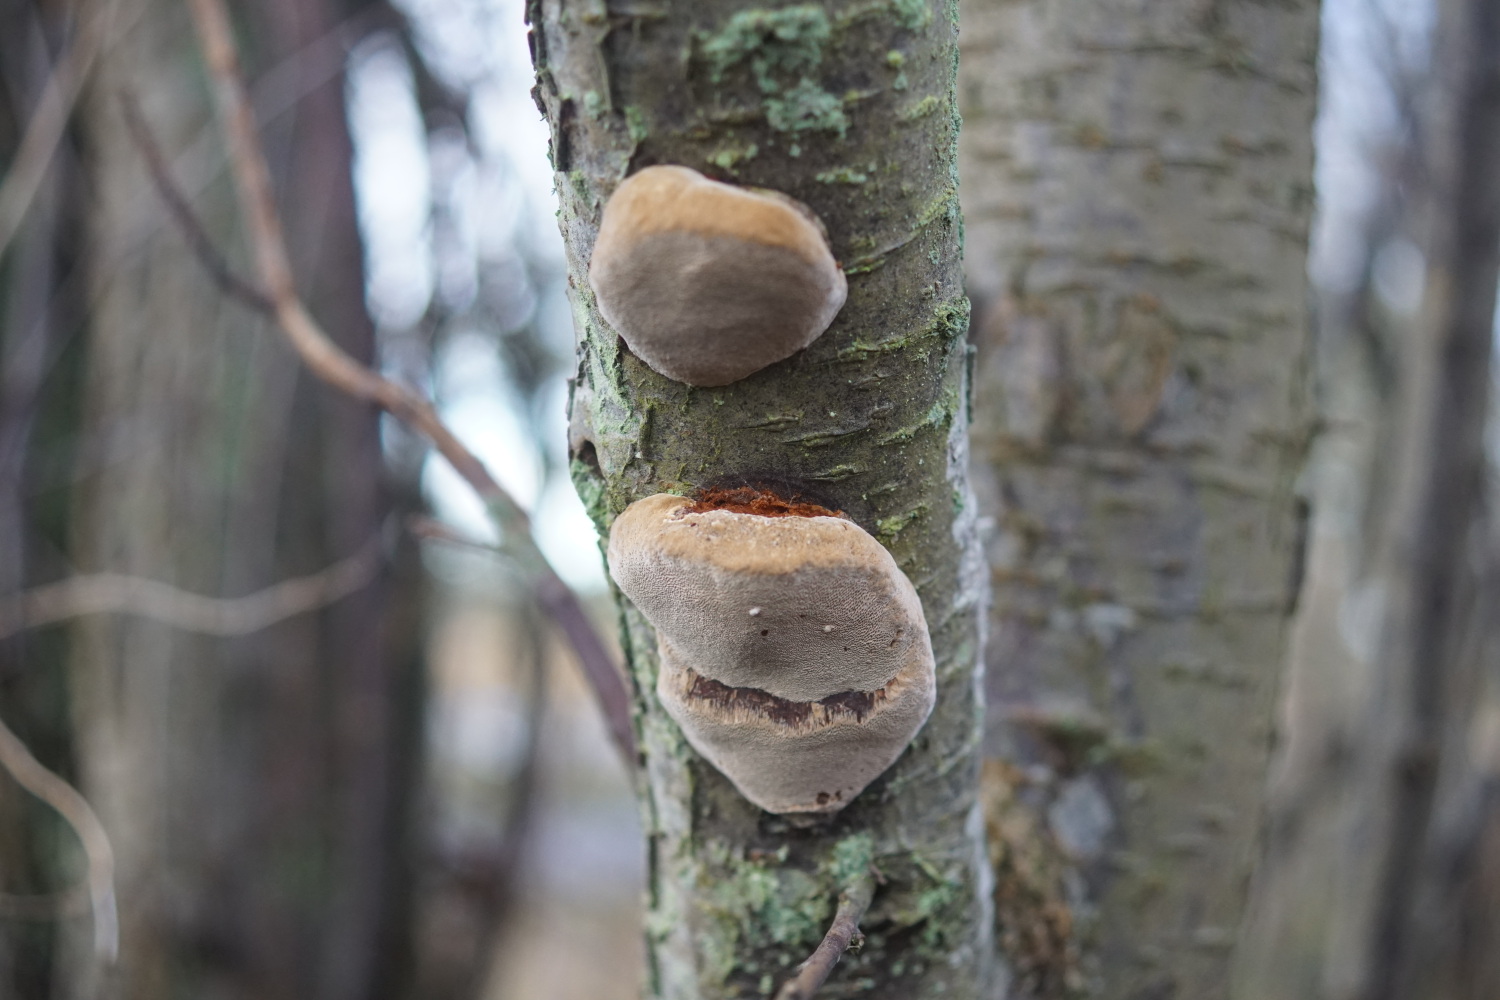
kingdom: Fungi
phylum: Basidiomycota
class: Agaricomycetes
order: Hymenochaetales
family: Hymenochaetaceae
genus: Phellinus
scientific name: Phellinus pomaceus
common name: blomme-ildporesvamp
